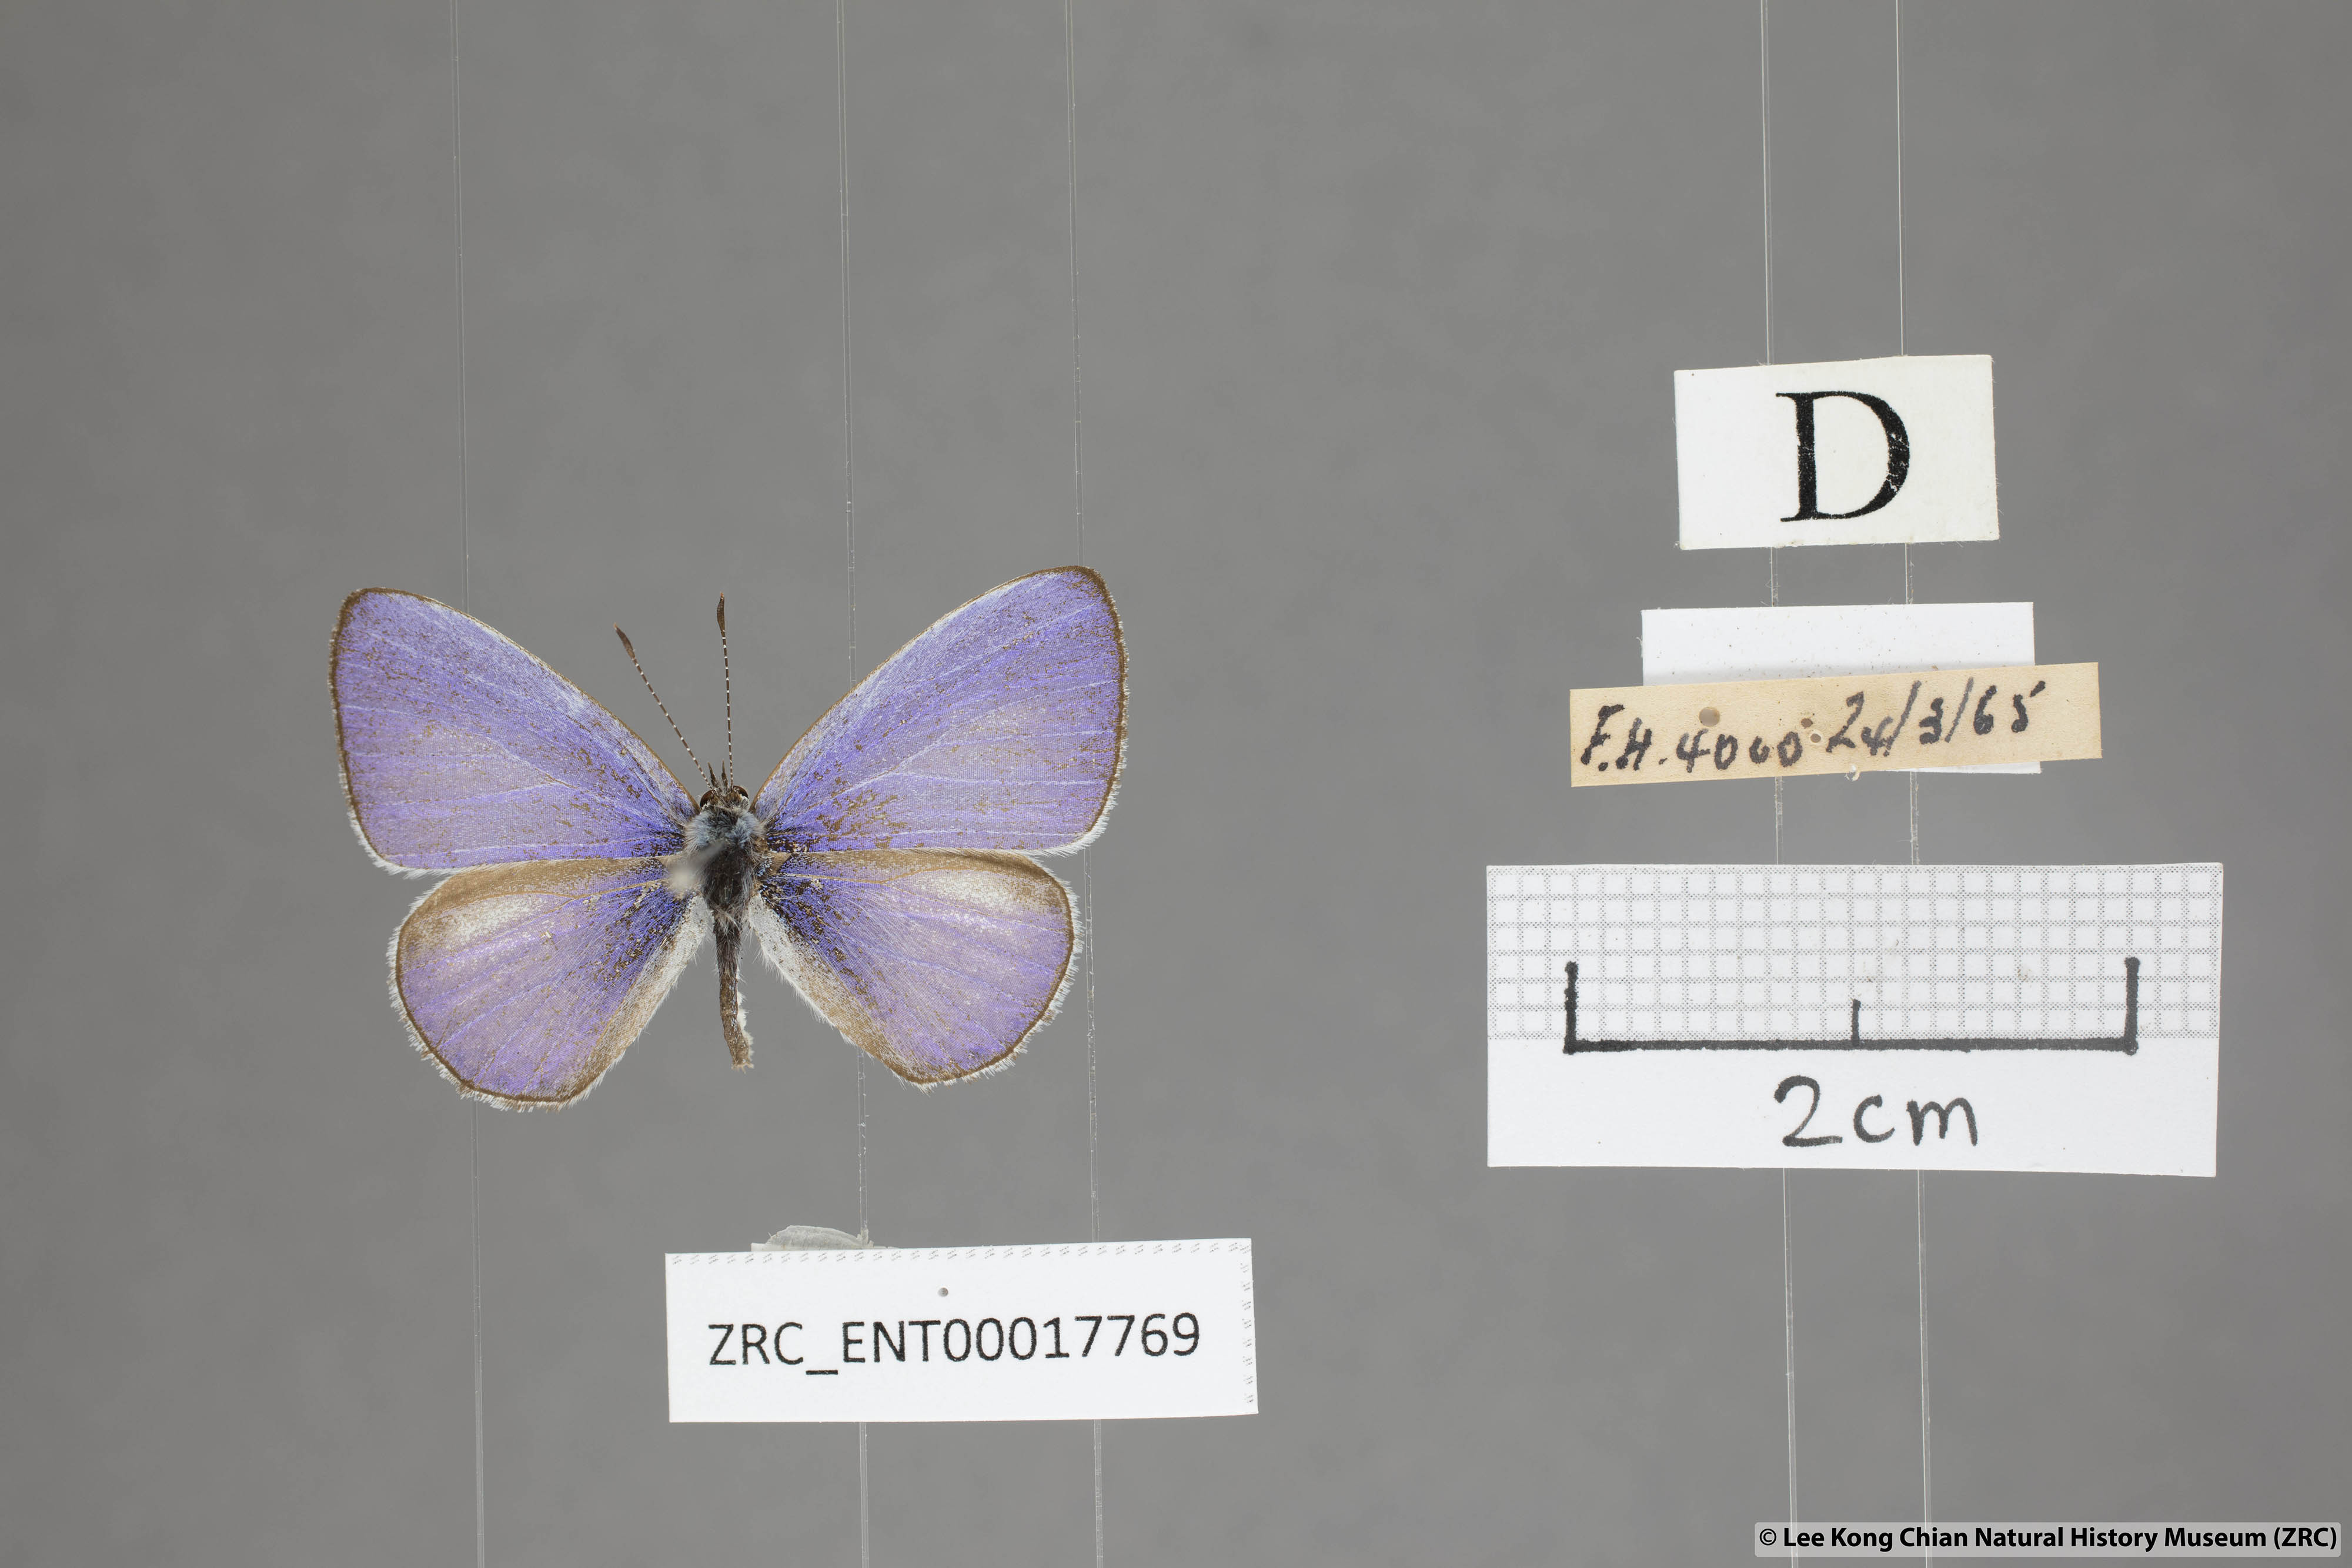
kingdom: Animalia
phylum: Arthropoda
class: Insecta
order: Lepidoptera
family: Lycaenidae
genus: Udara
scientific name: Udara dilectus
